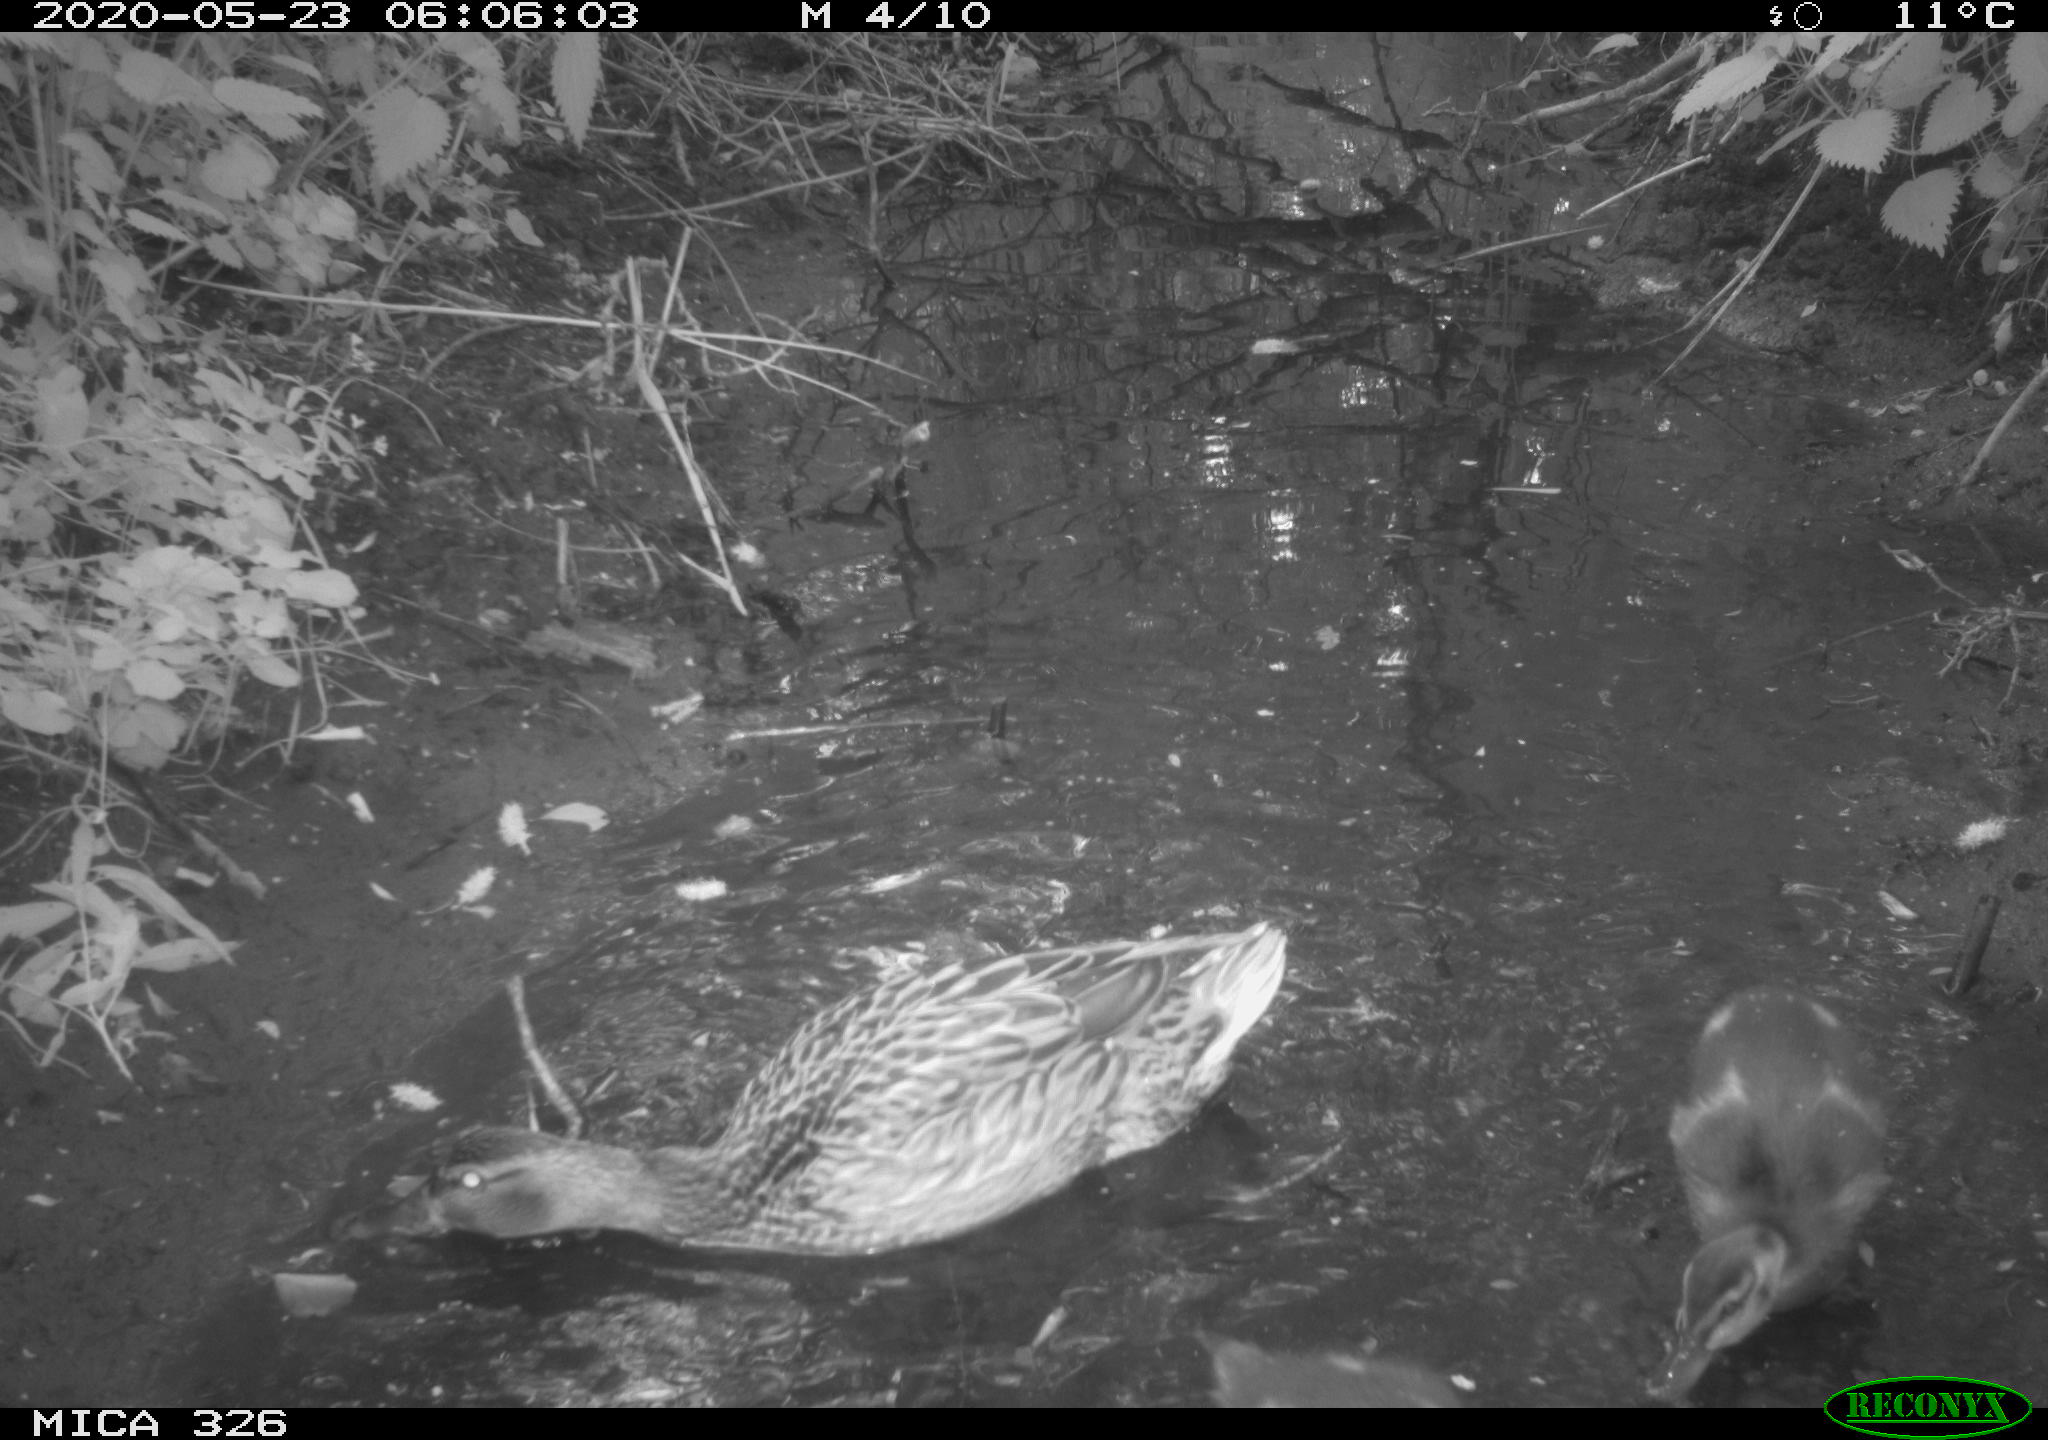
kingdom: Animalia
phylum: Chordata
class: Aves
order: Anseriformes
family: Anatidae
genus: Anas
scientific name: Anas platyrhynchos
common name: Mallard
